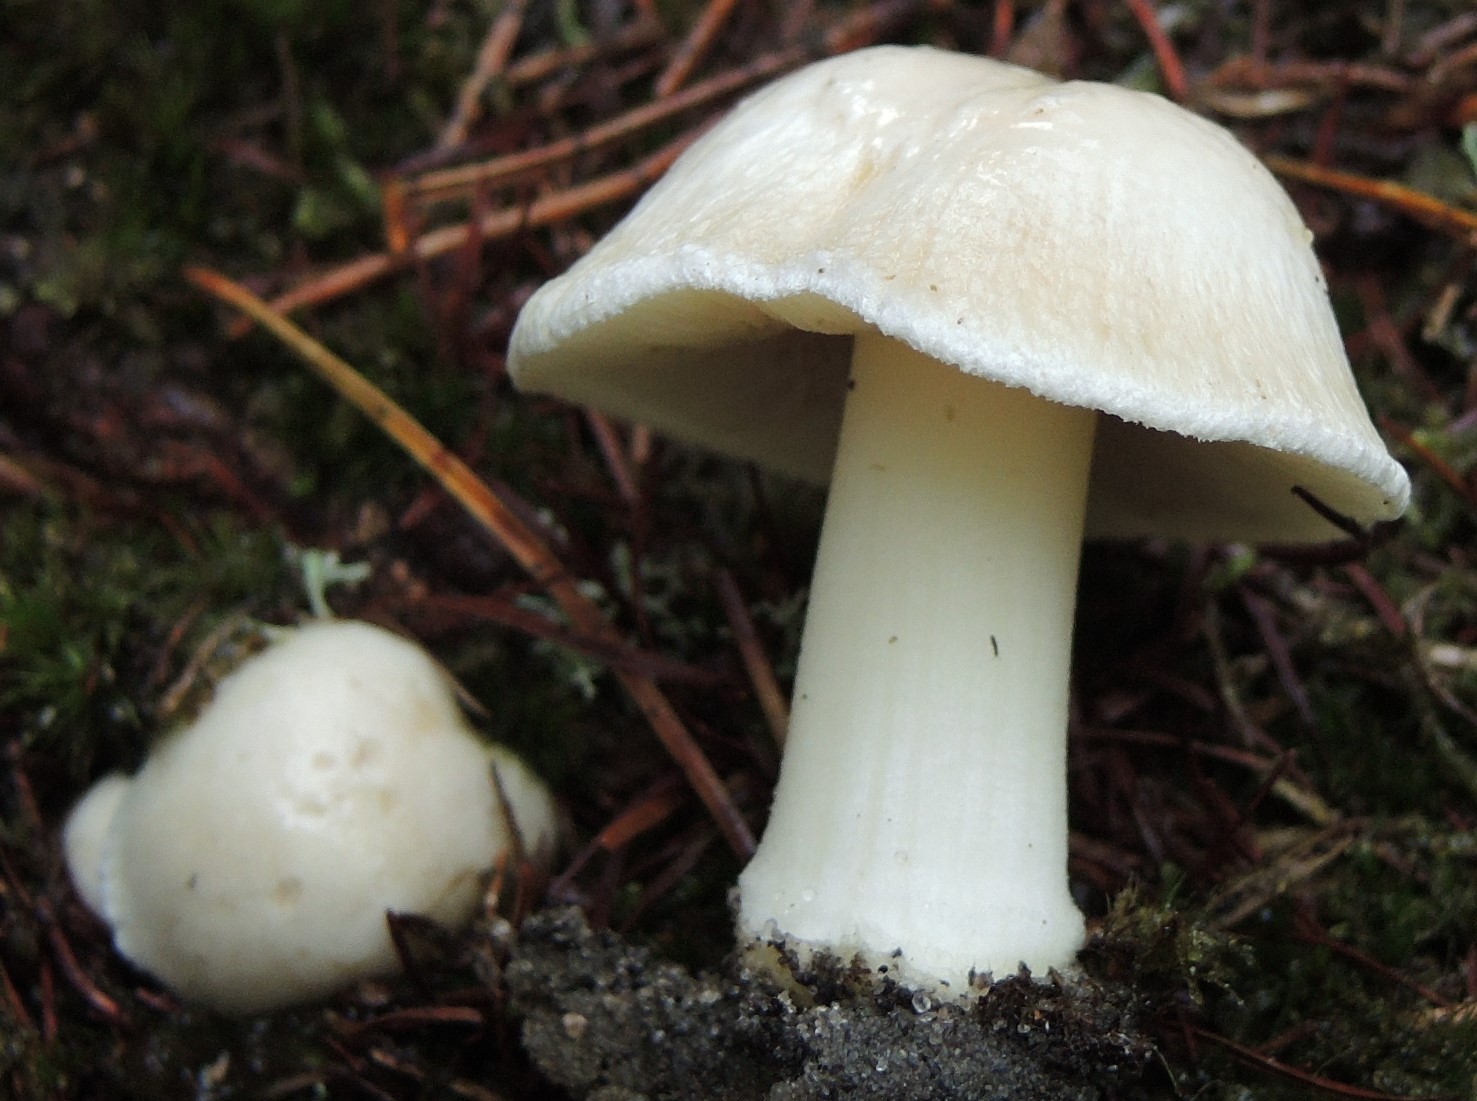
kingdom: Fungi
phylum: Basidiomycota
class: Agaricomycetes
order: Agaricales
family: Inocybaceae
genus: Inocybe
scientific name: Inocybe sambucina
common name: hyldehvid trævlhat
